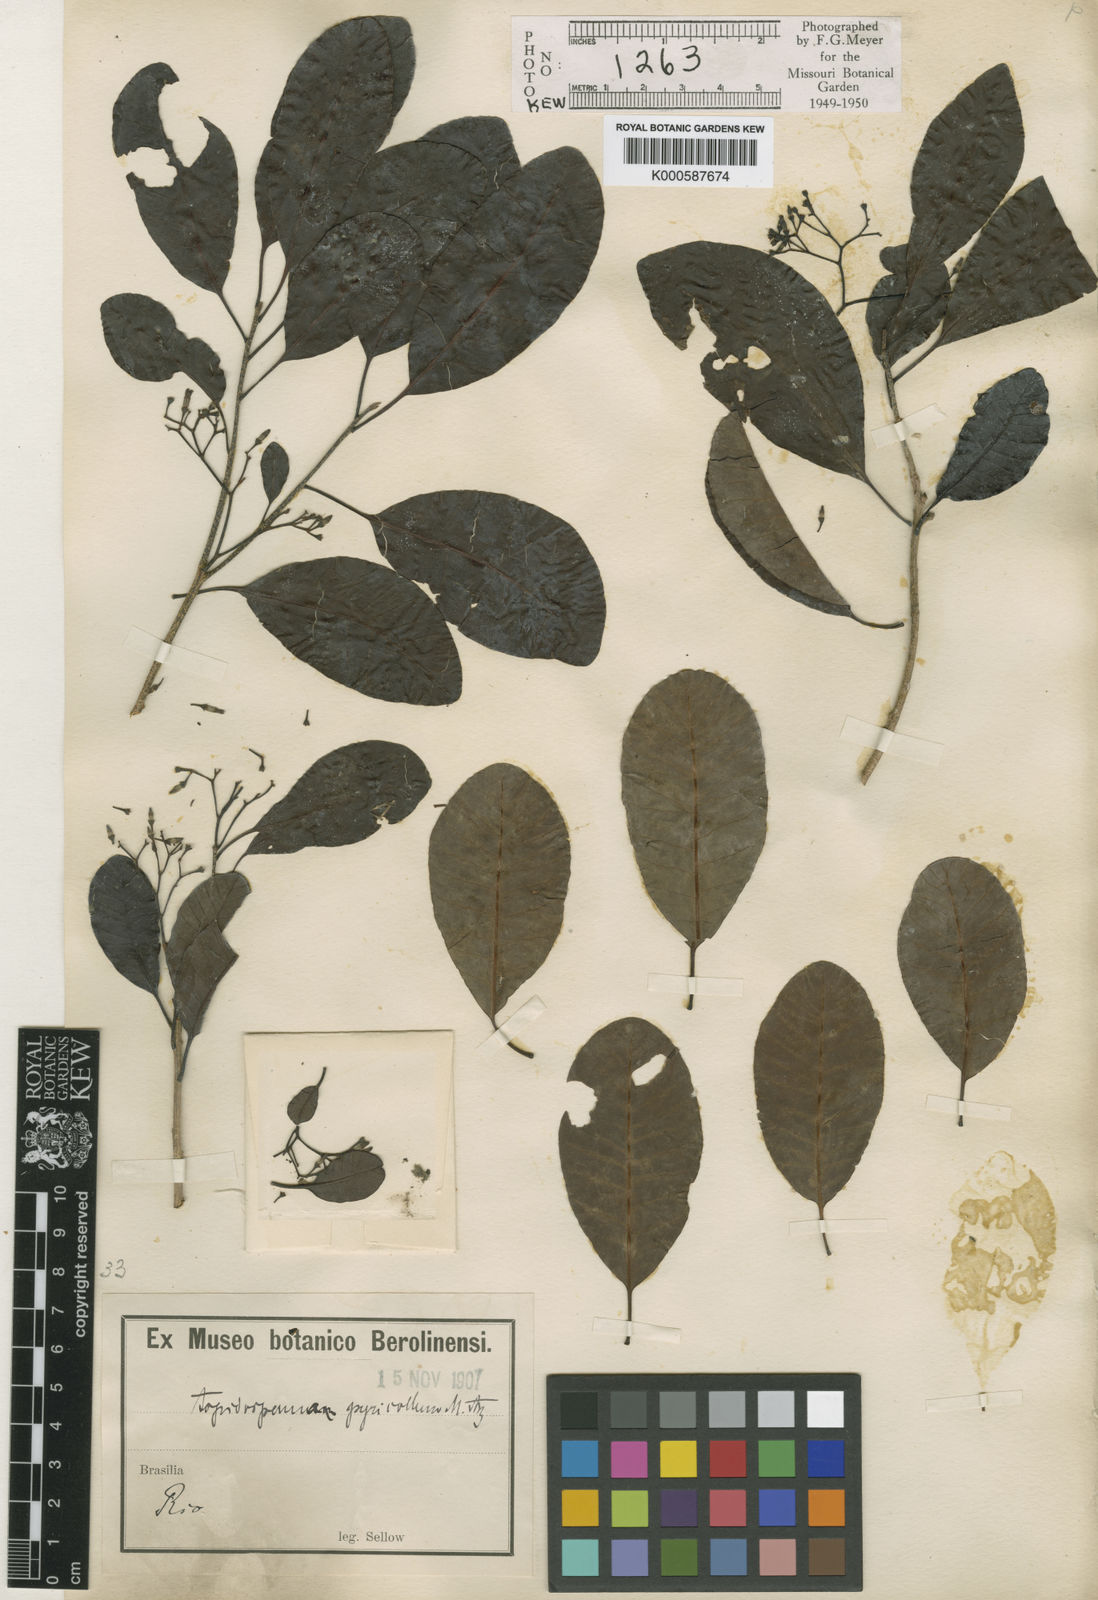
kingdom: Plantae
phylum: Tracheophyta
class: Magnoliopsida
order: Gentianales
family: Apocynaceae
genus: Aspidosperma
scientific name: Aspidosperma
